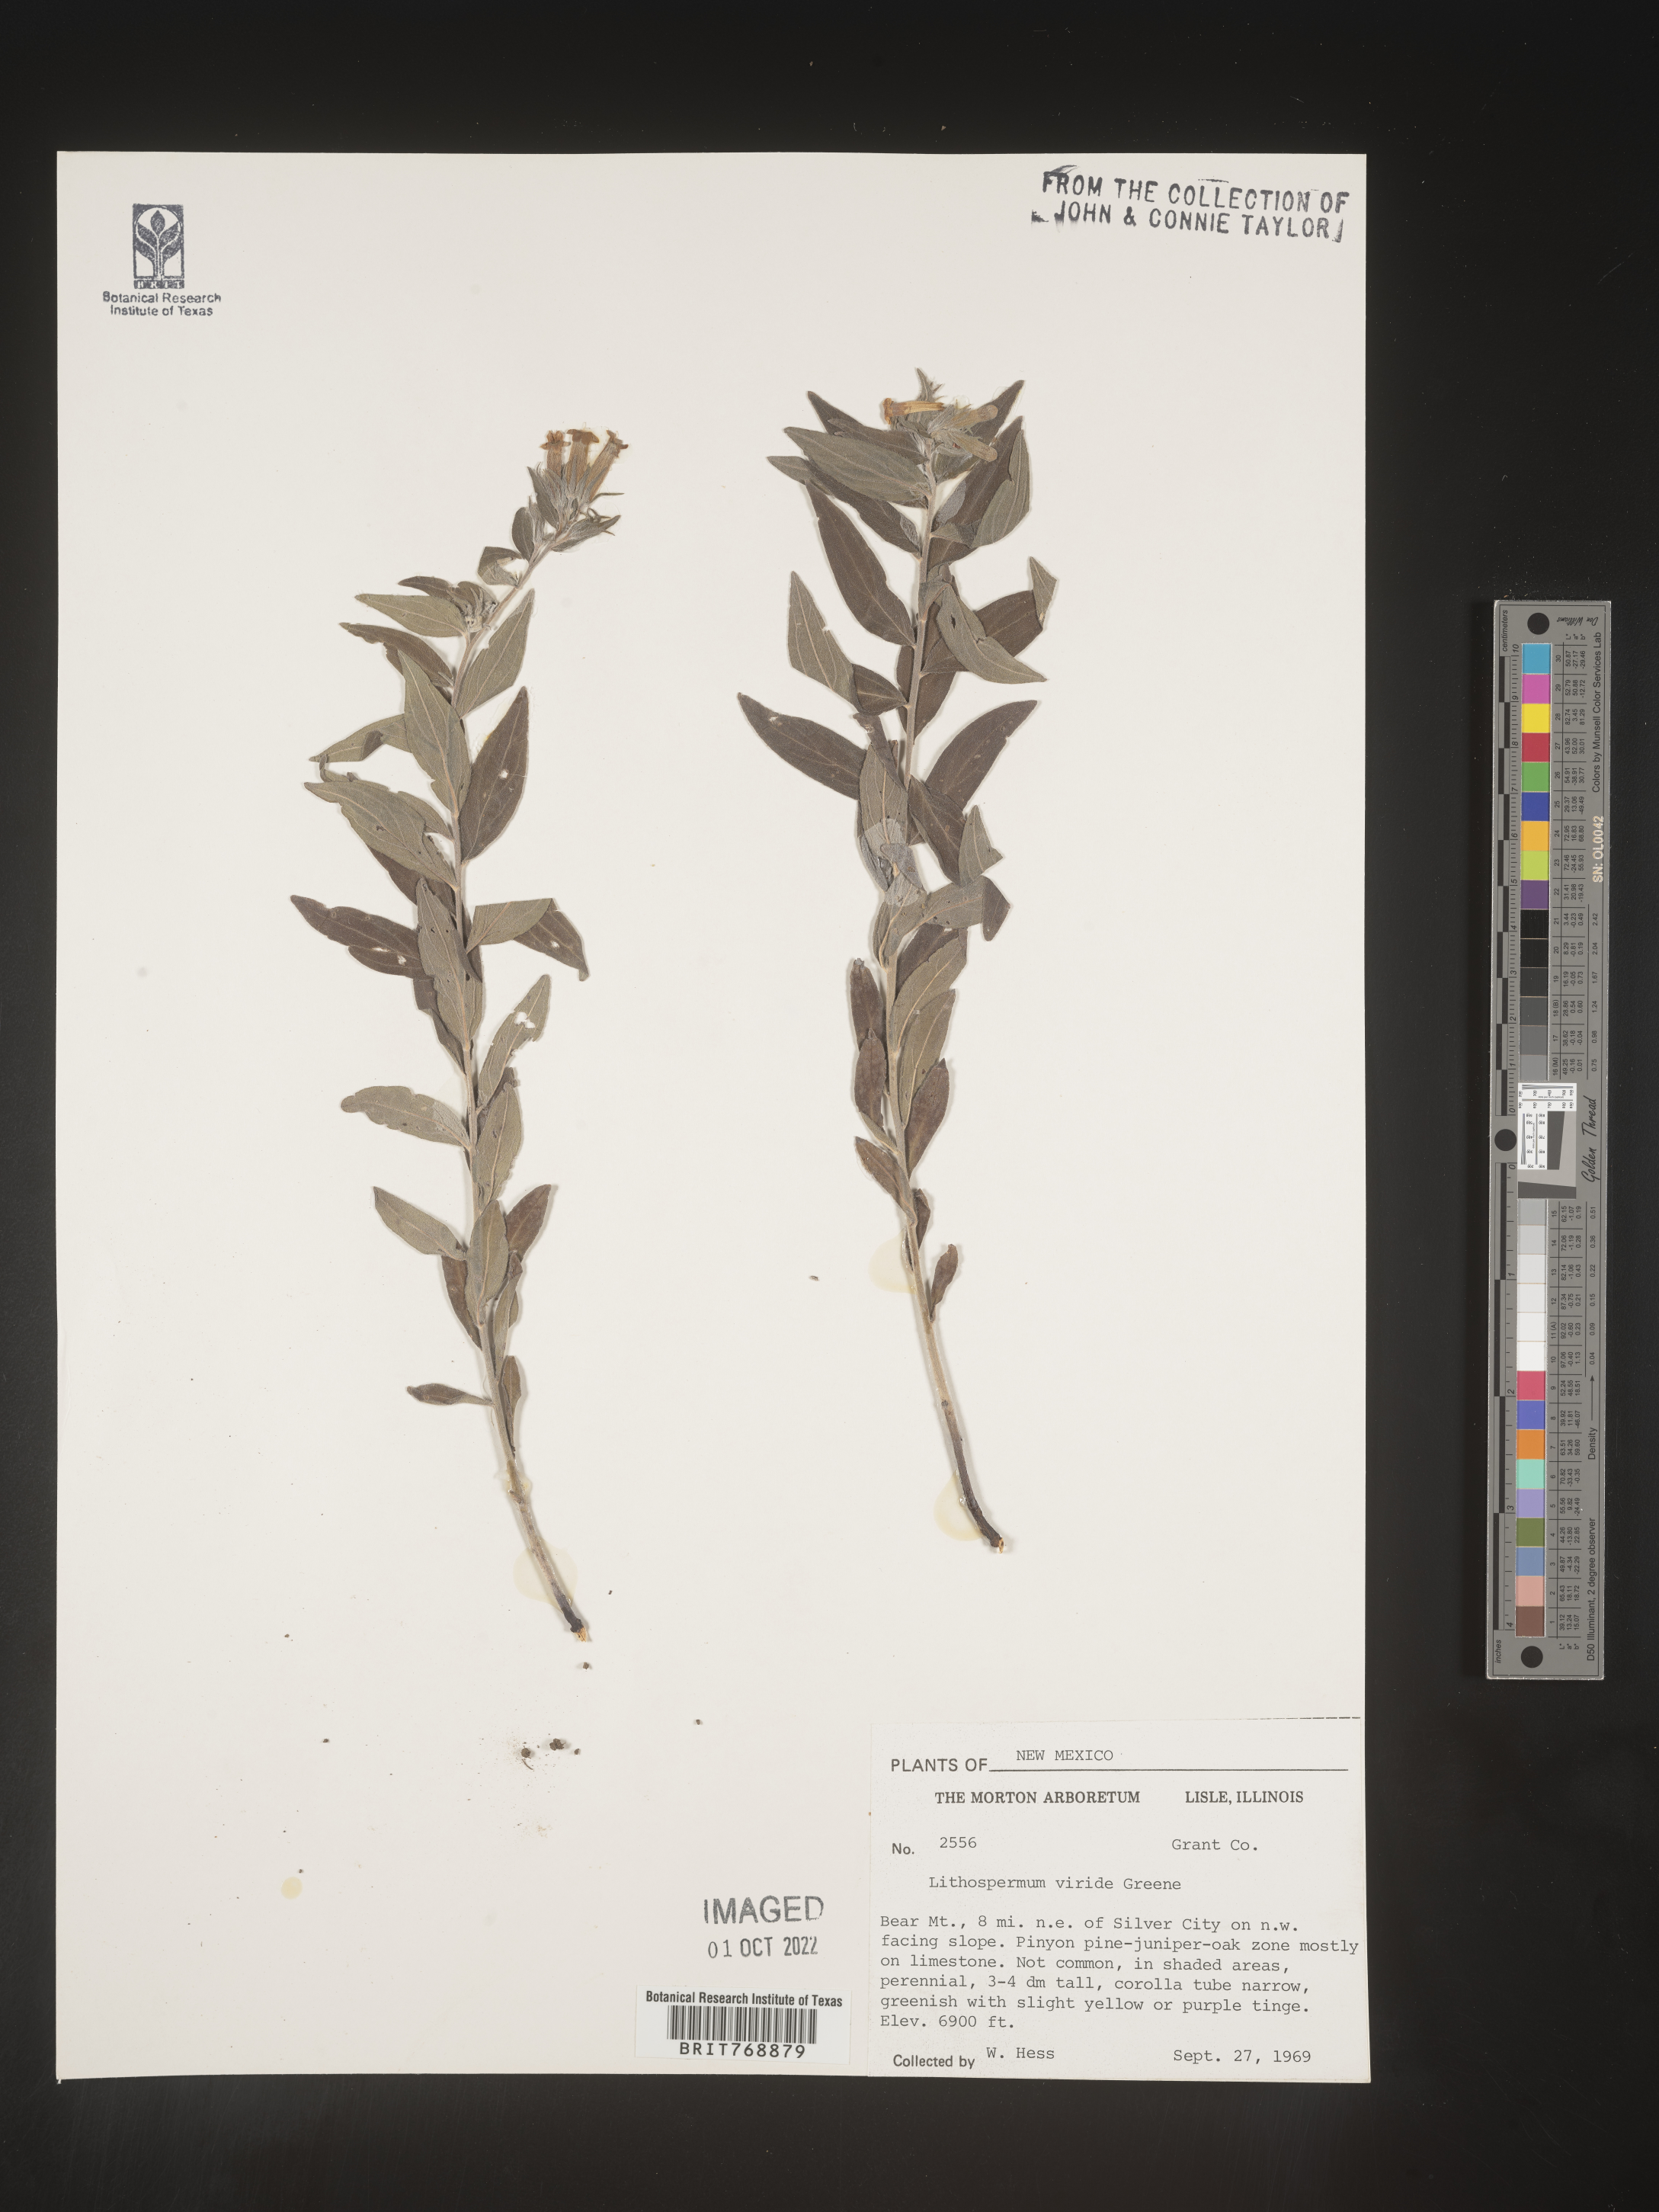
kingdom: Plantae
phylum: Tracheophyta
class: Magnoliopsida
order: Boraginales
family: Boraginaceae
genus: Lithospermum
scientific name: Lithospermum
